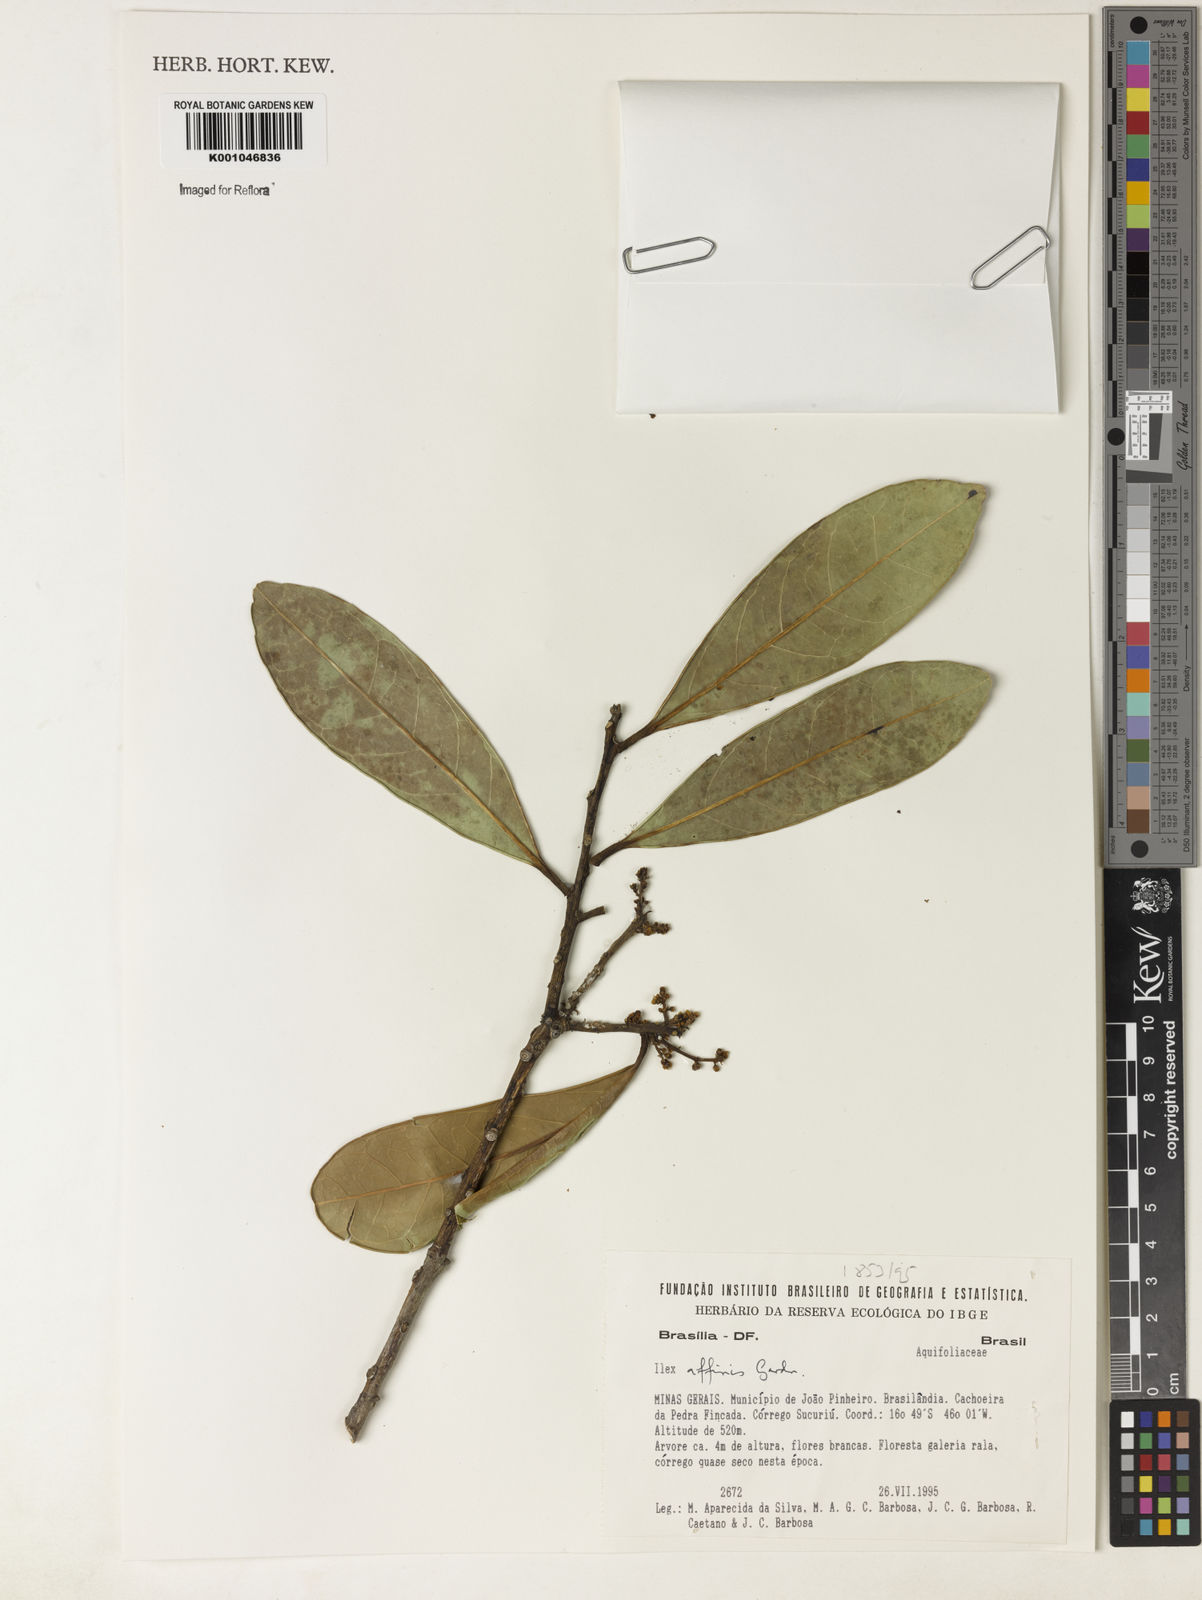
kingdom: Plantae
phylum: Tracheophyta
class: Magnoliopsida
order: Aquifoliales
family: Aquifoliaceae
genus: Ilex
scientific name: Ilex affinis
